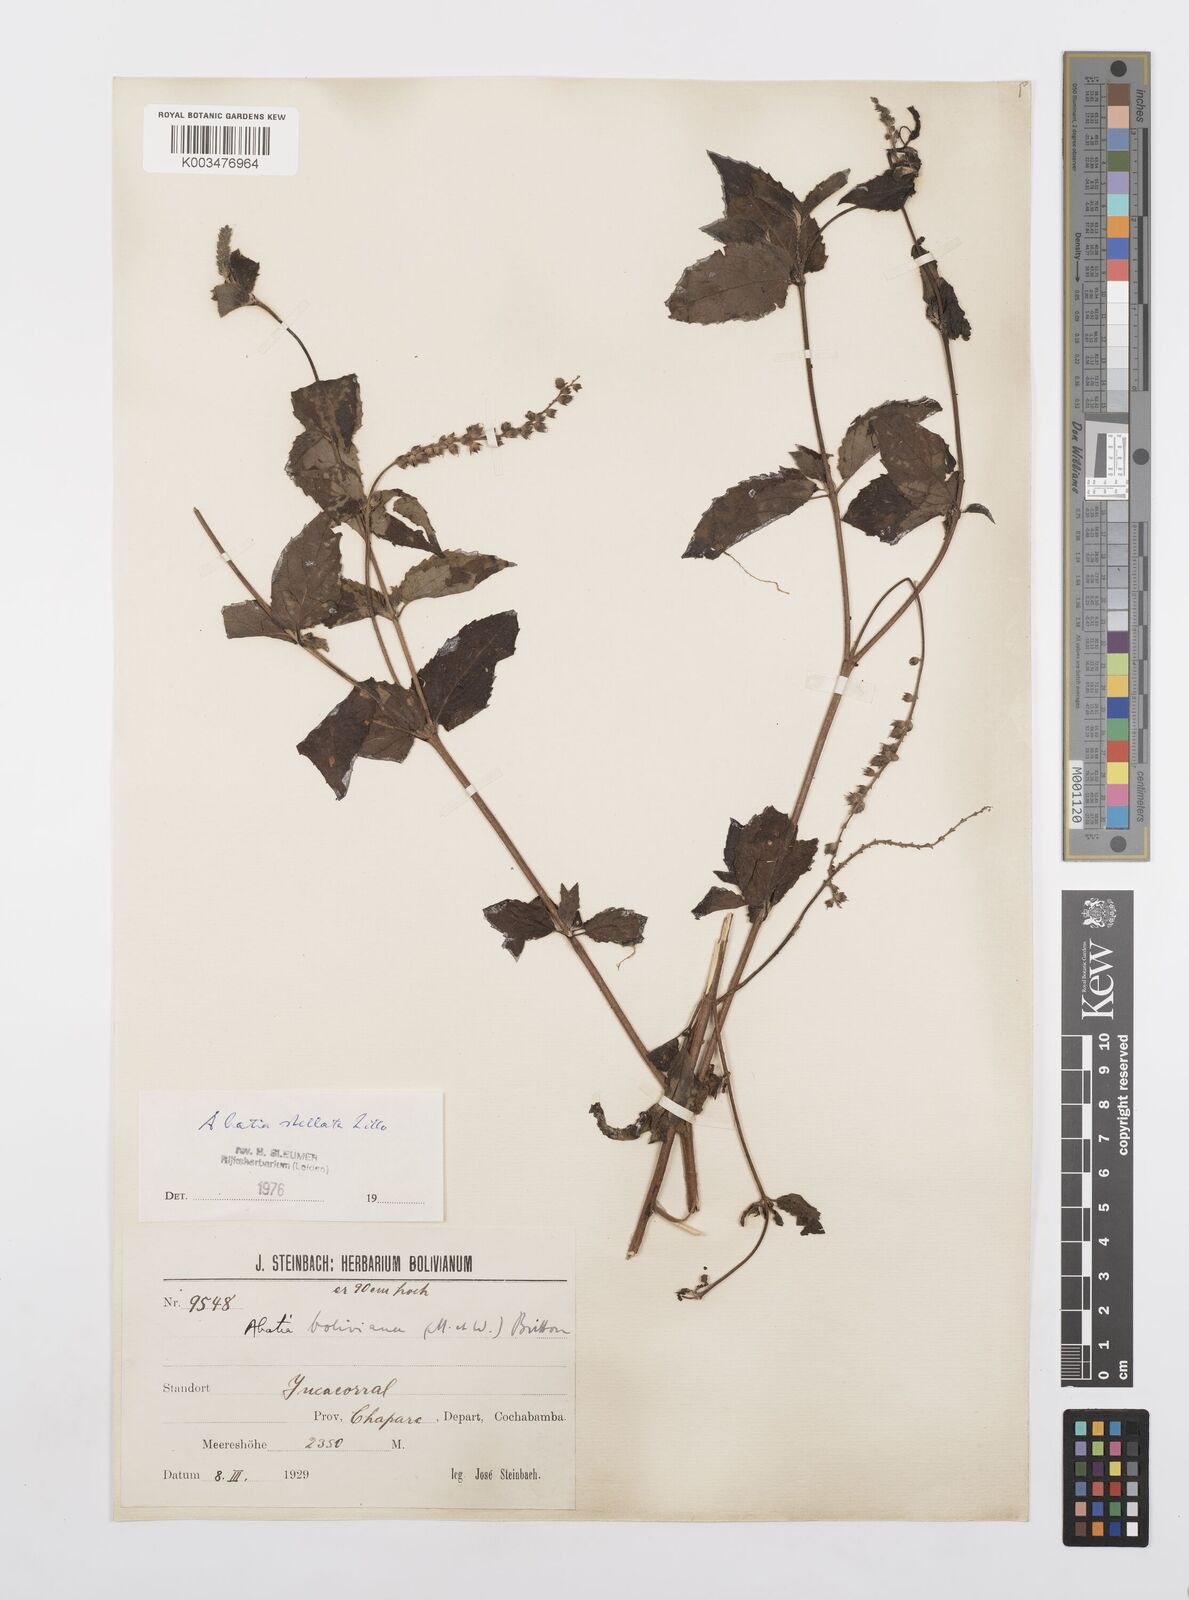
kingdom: Plantae
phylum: Tracheophyta
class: Magnoliopsida
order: Malpighiales
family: Salicaceae
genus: Abatia
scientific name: Abatia stellata
